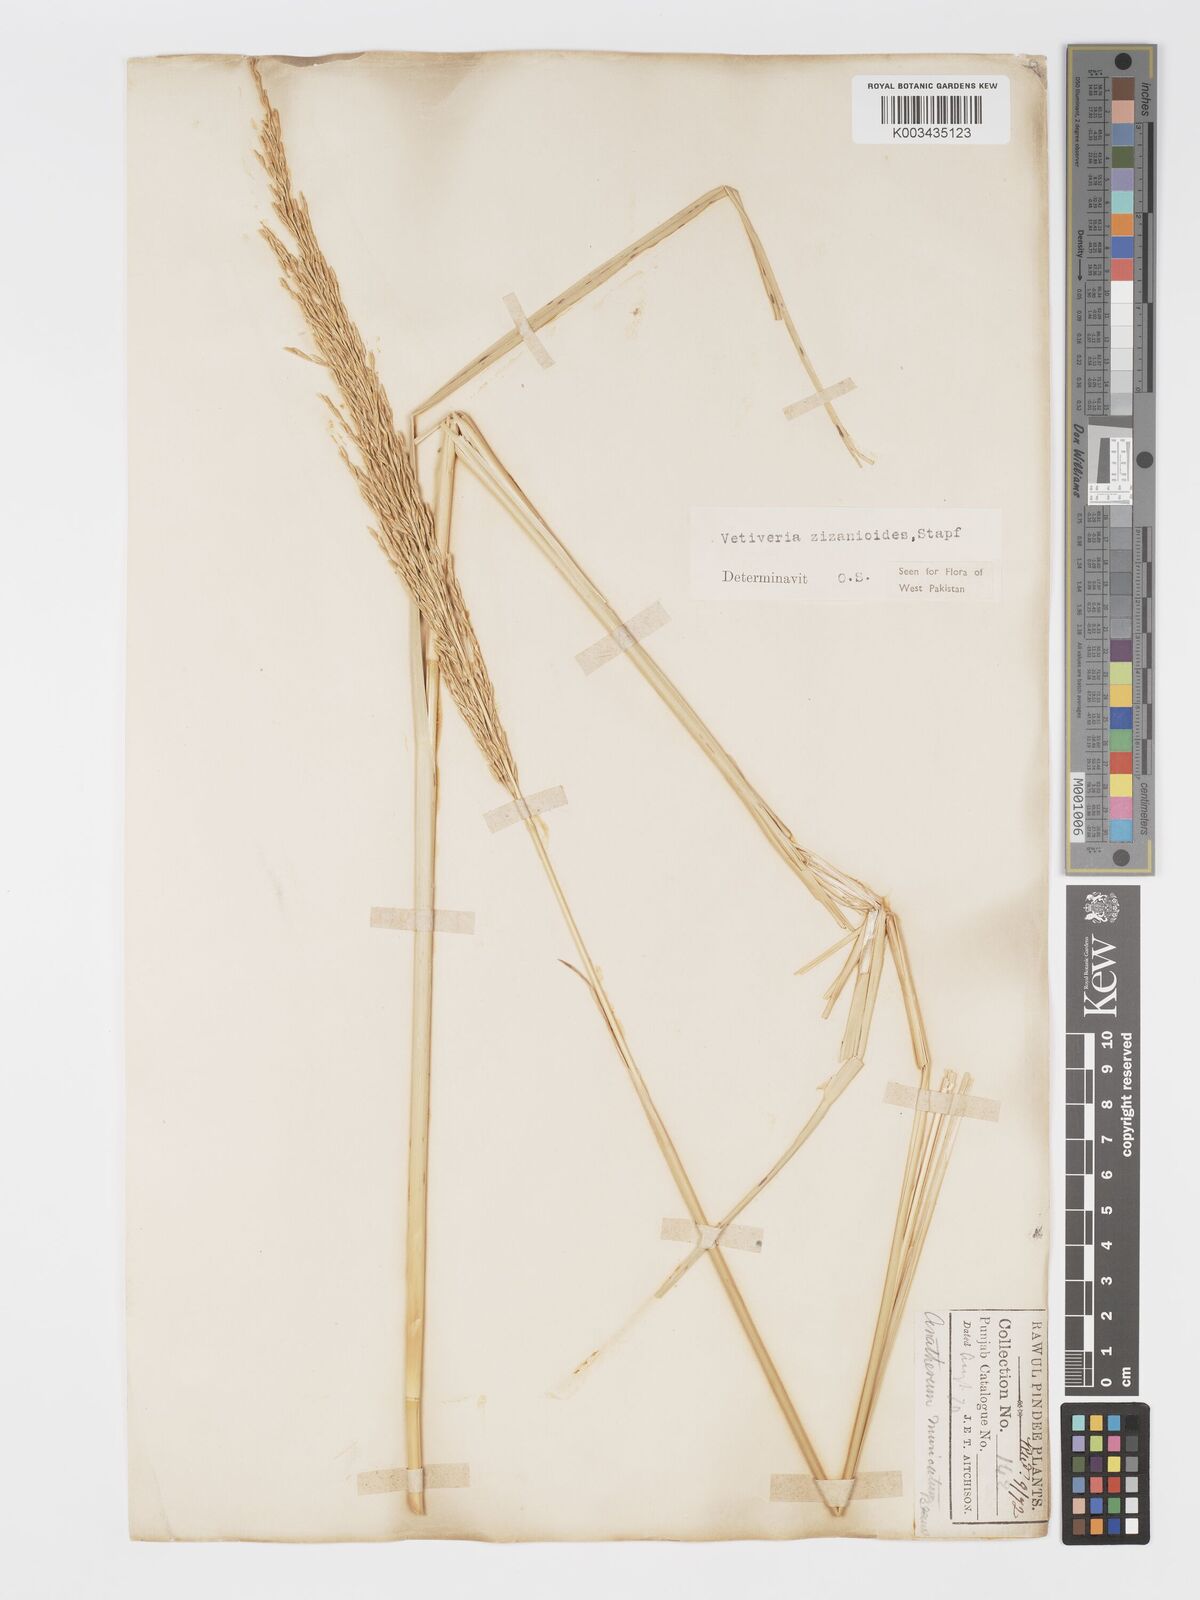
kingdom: Plantae
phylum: Tracheophyta
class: Liliopsida
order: Poales
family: Poaceae
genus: Chrysopogon
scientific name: Chrysopogon zizanioides
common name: False beardgrass
